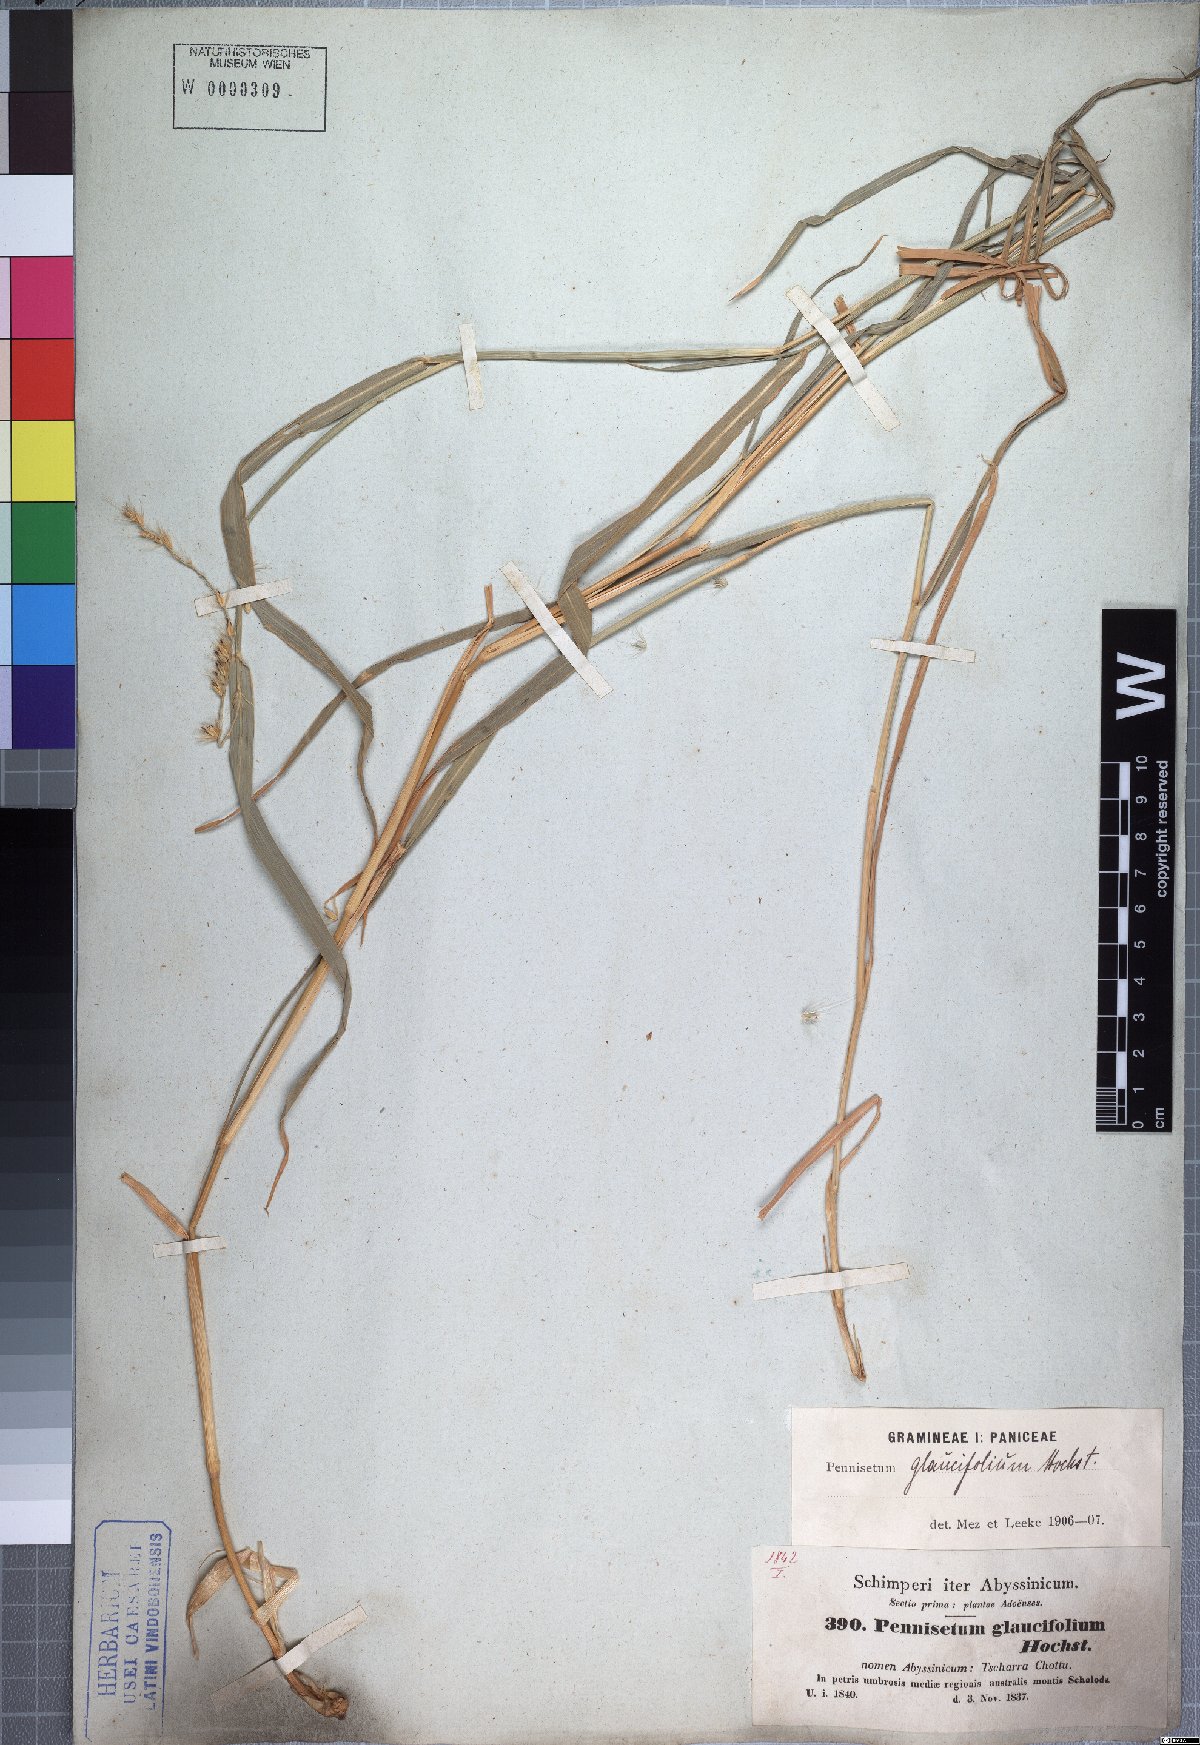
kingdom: Plantae
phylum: Tracheophyta
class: Liliopsida
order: Poales
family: Poaceae
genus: Cenchrus
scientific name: Cenchrus glaucifolius
